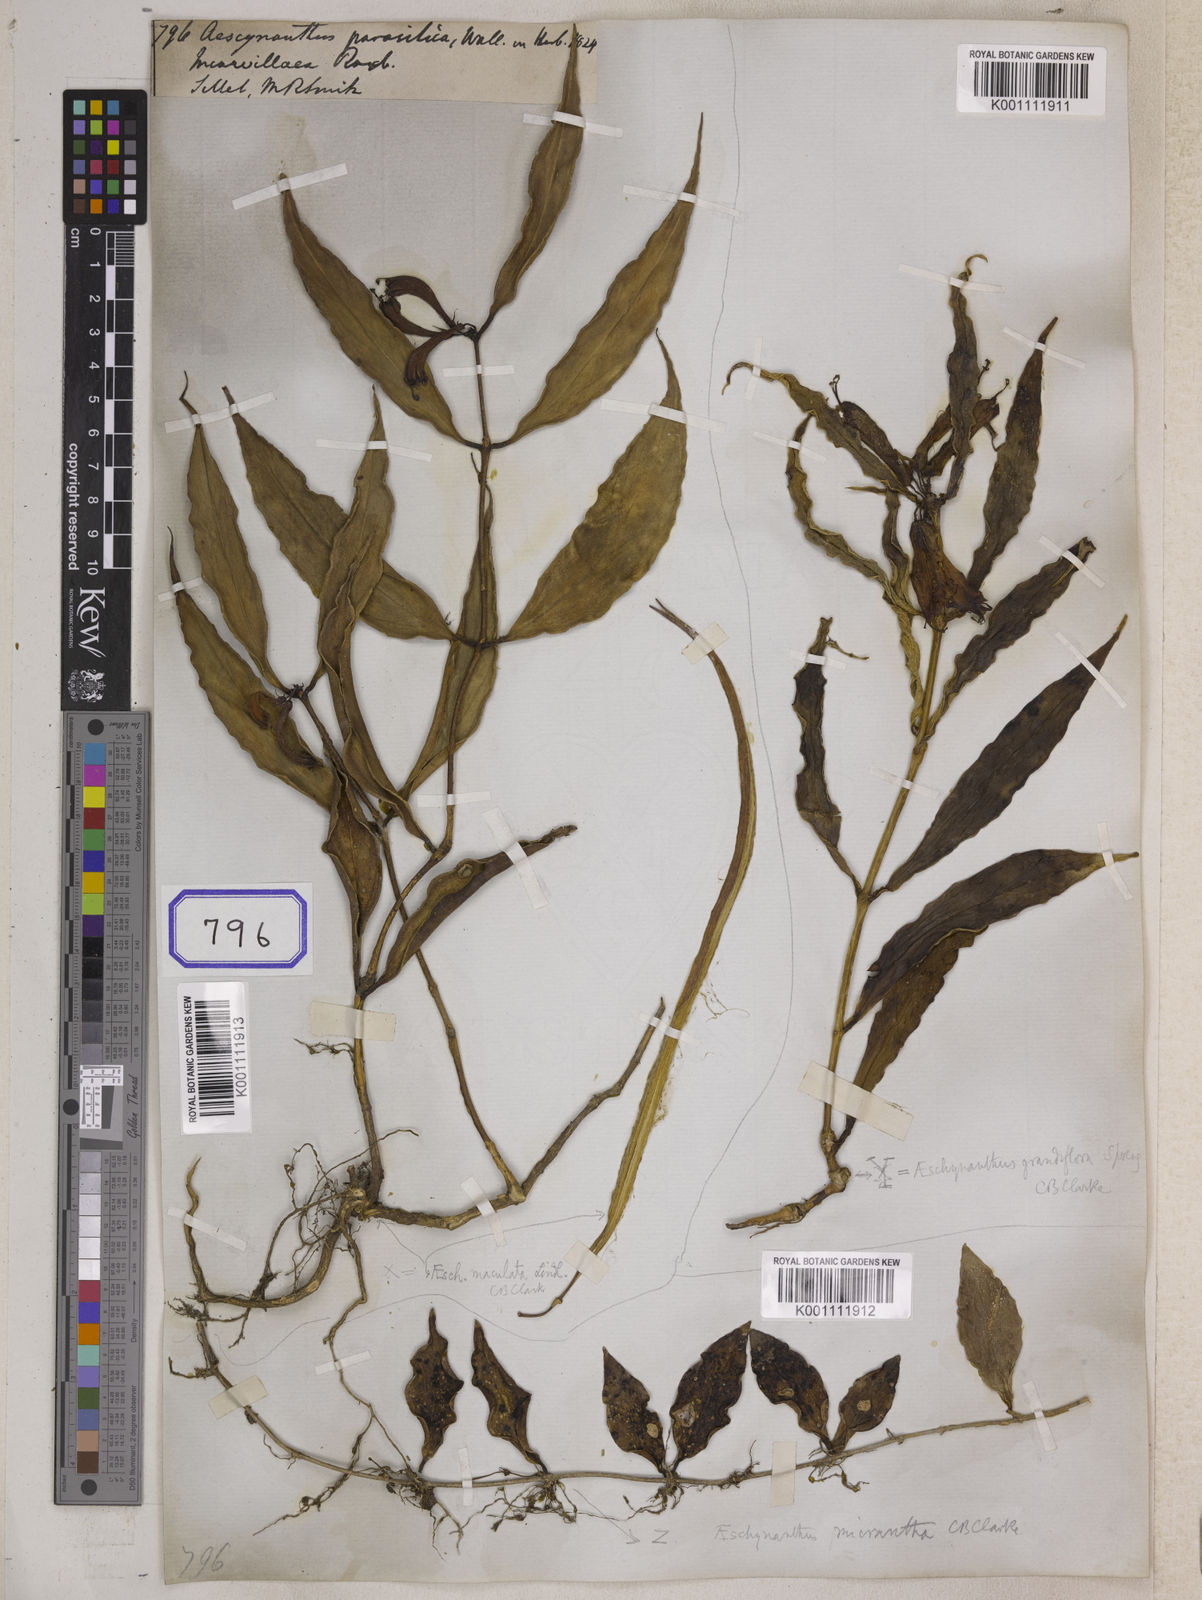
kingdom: Plantae
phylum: Tracheophyta
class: Magnoliopsida
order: Lamiales
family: Gesneriaceae
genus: Aeschynanthus
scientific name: Aeschynanthus parasiticus
